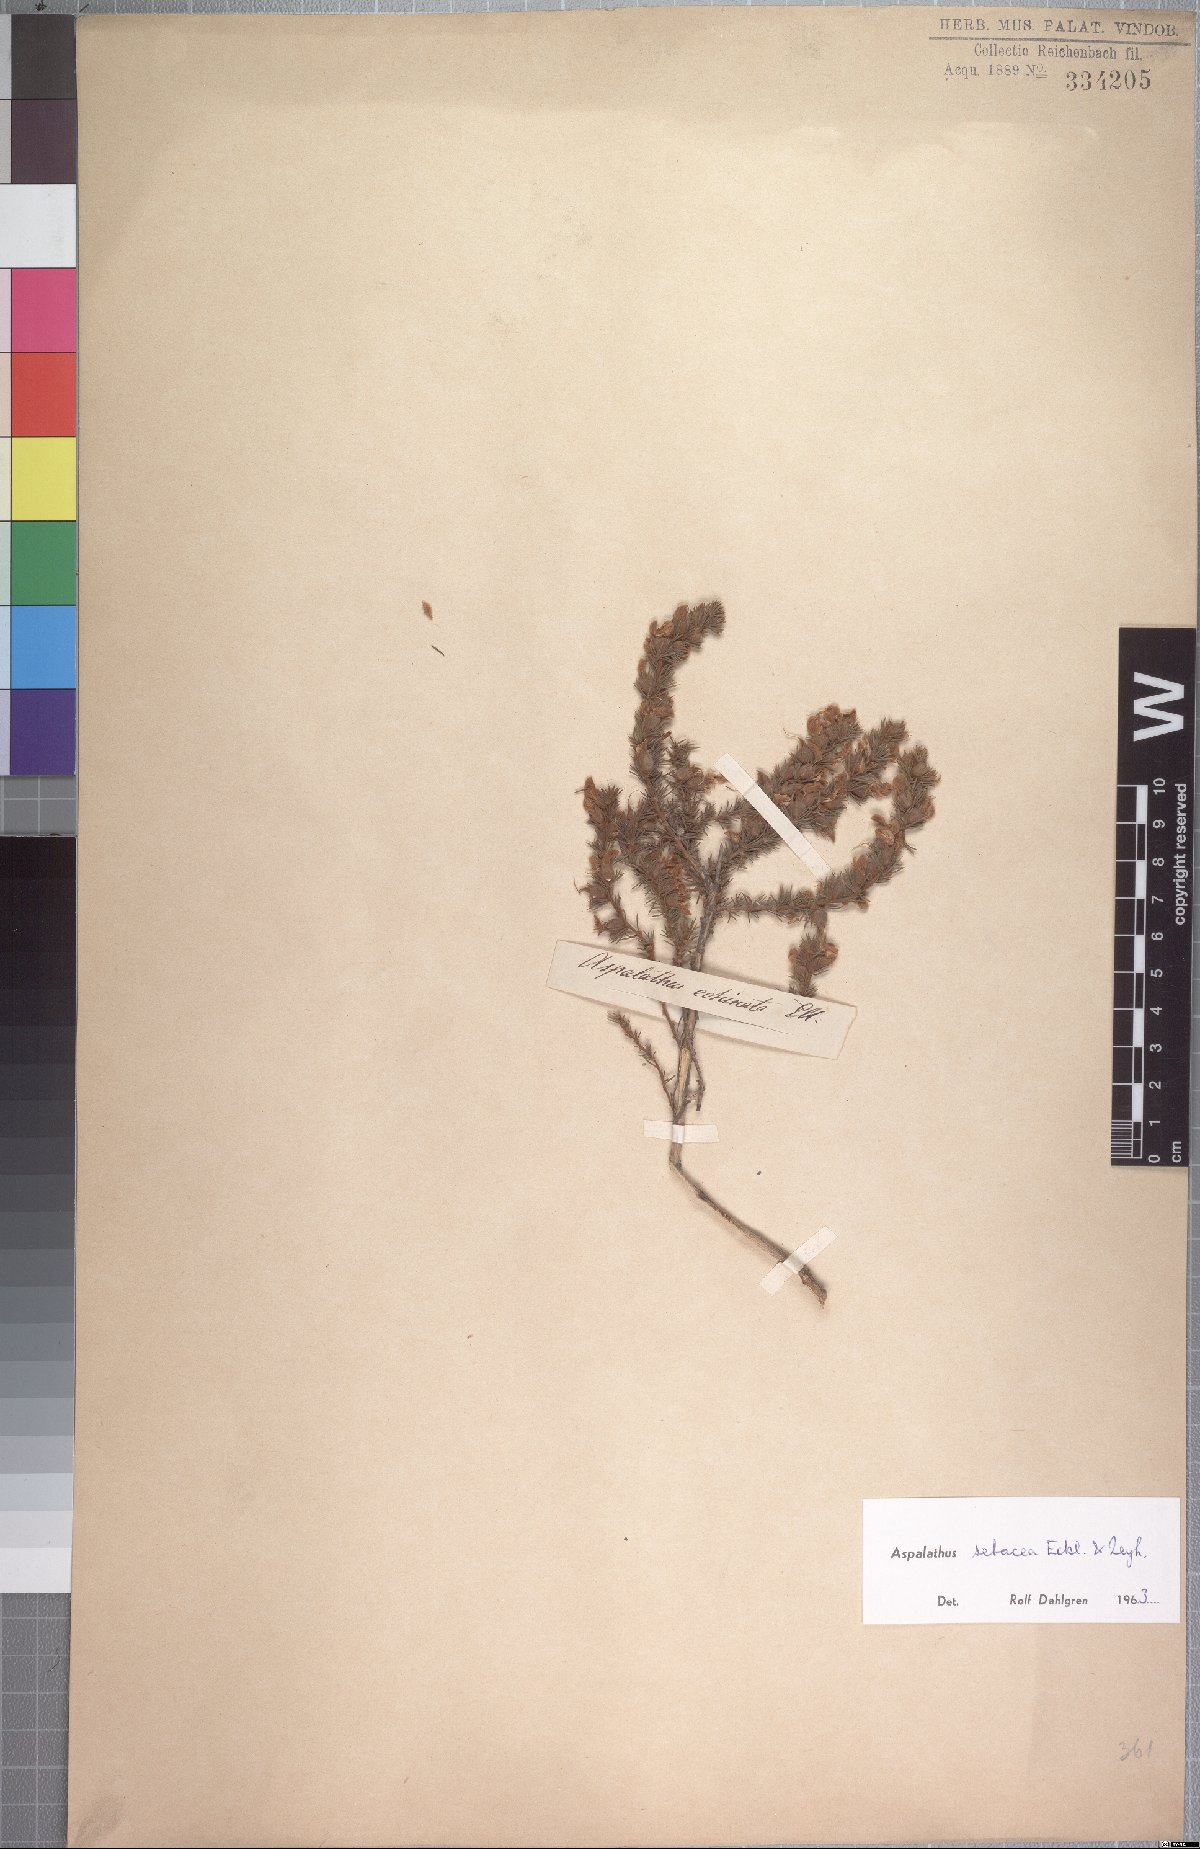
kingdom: Plantae
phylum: Tracheophyta
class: Magnoliopsida
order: Fabales
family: Fabaceae
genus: Aspalathus
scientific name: Aspalathus setacea
